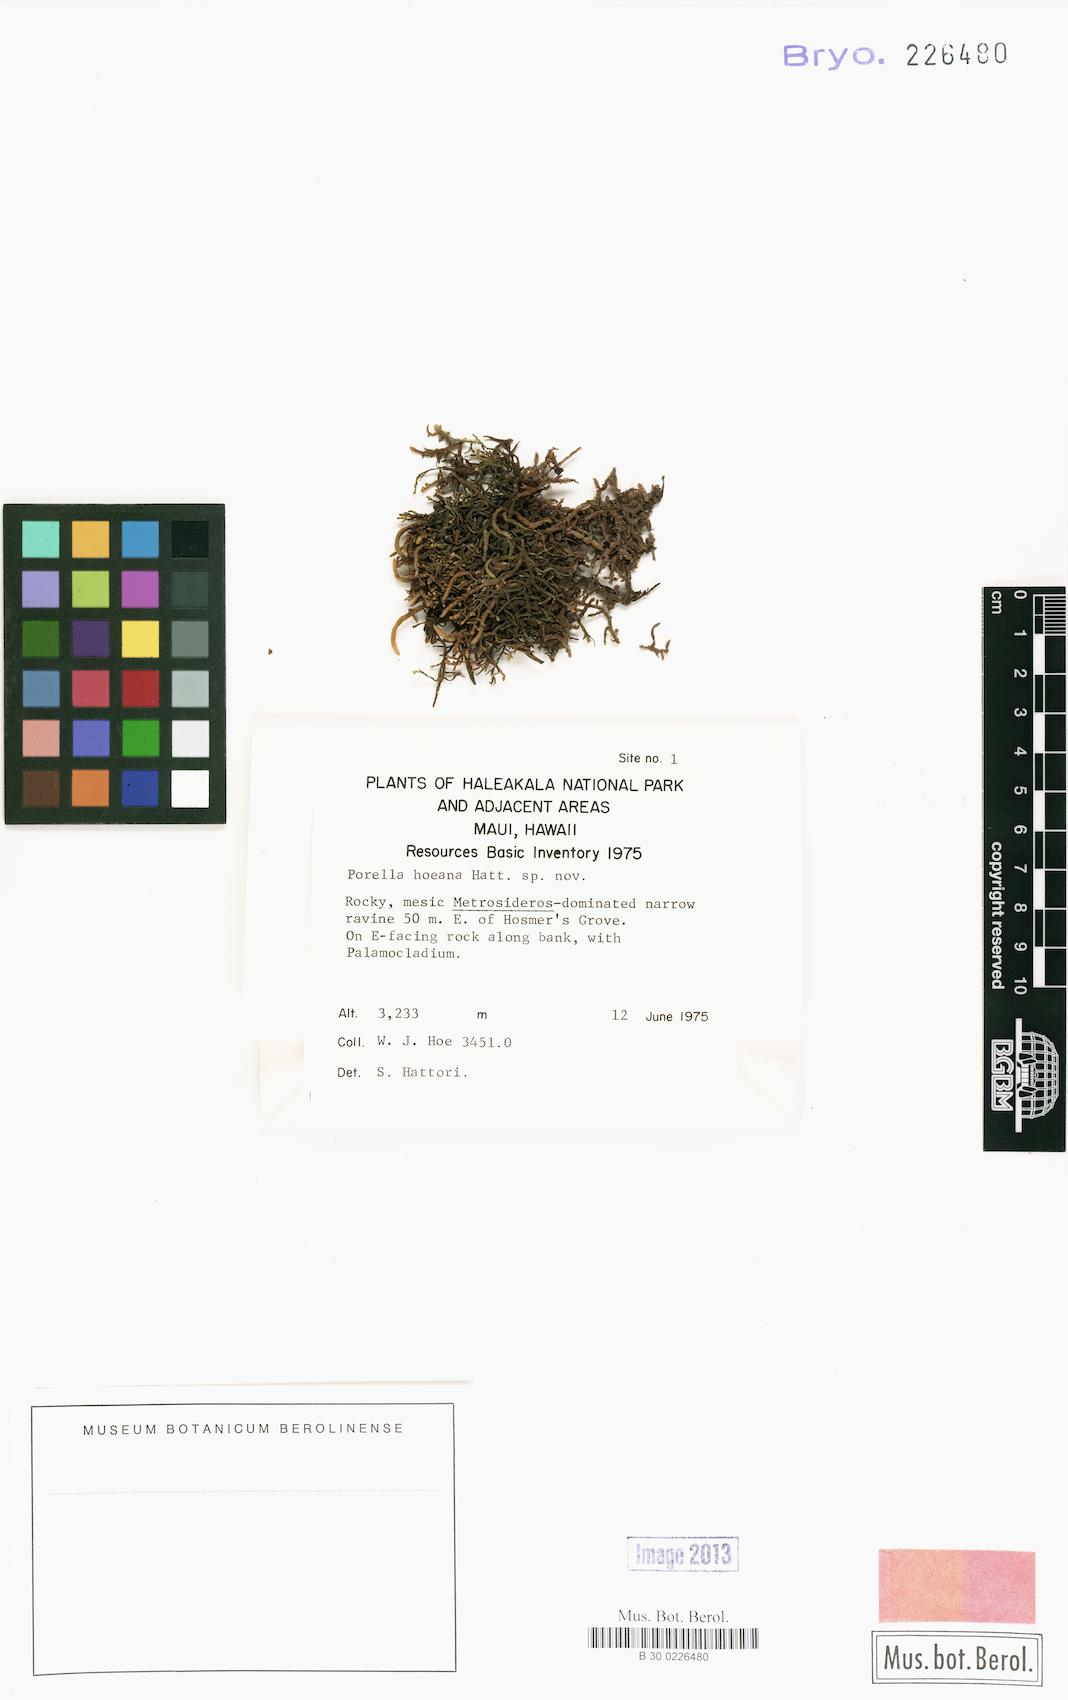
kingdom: Plantae
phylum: Marchantiophyta
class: Jungermanniopsida
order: Porellales
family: Porellaceae
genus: Porella
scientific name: Porella hoeana
